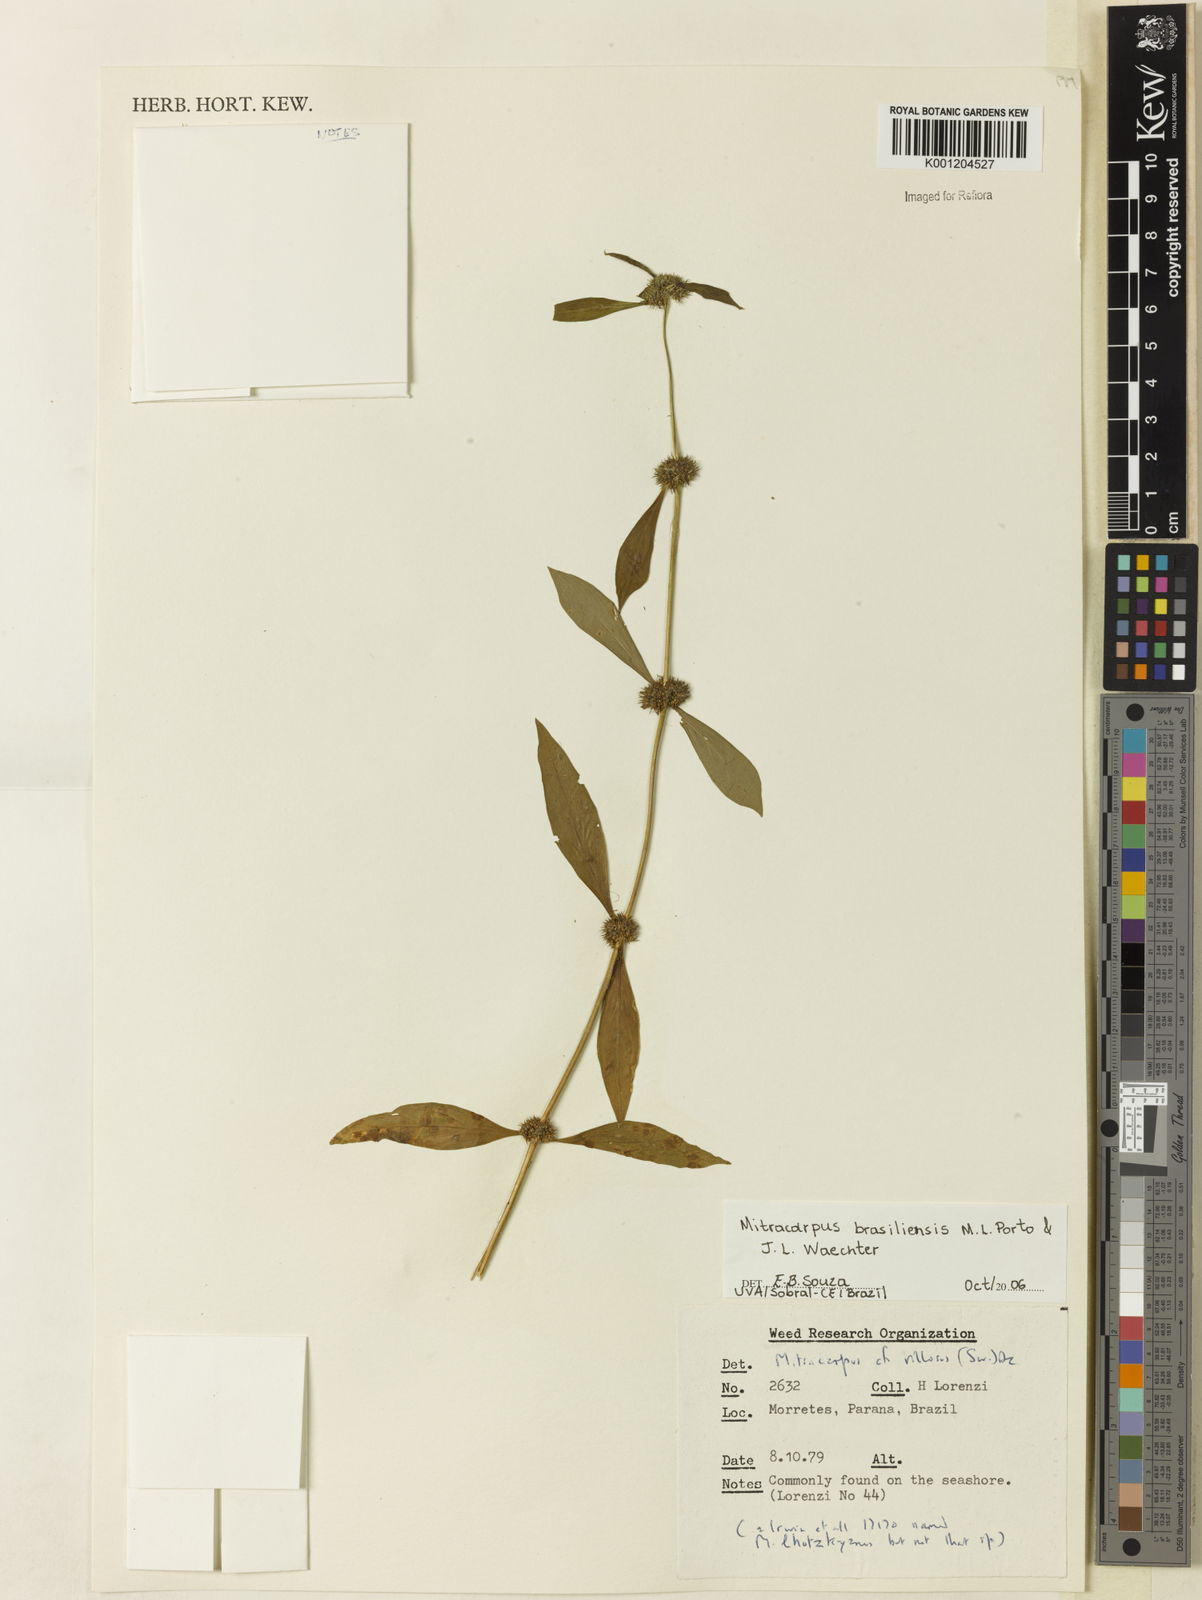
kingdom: Plantae
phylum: Tracheophyta
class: Magnoliopsida
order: Gentianales
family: Rubiaceae
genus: Mitracarpus
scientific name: Mitracarpus brasiliensis
